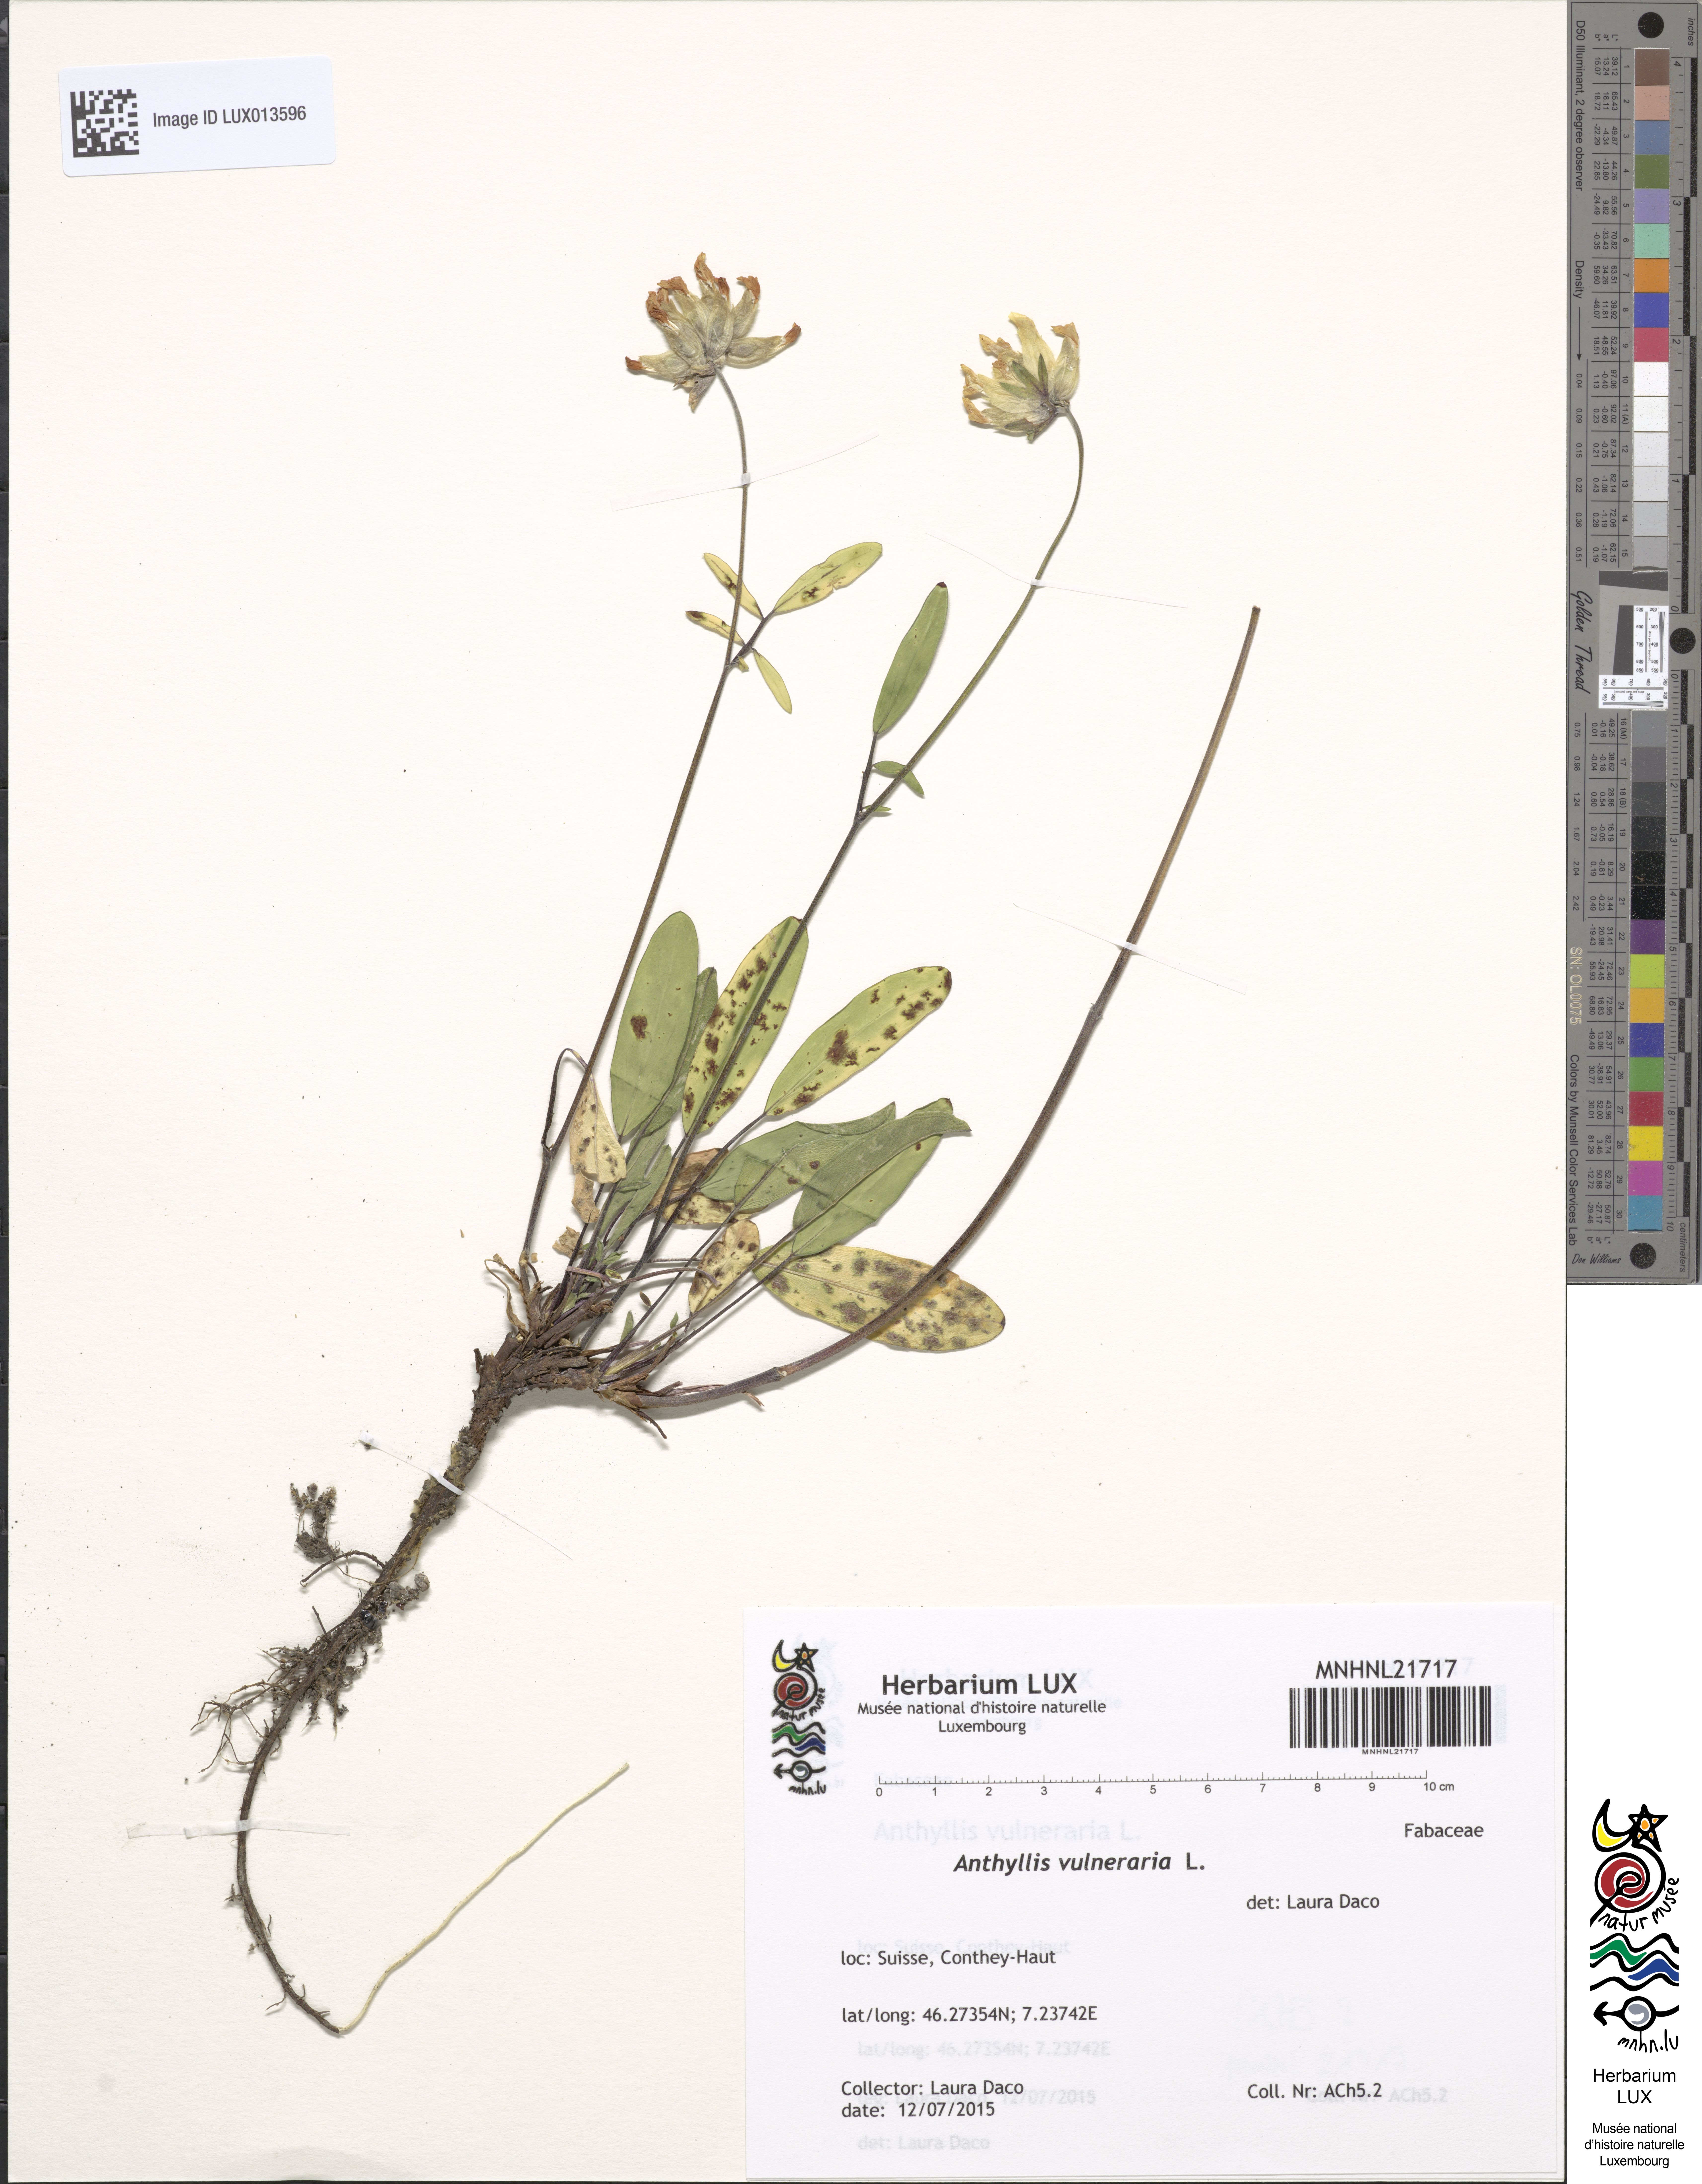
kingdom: Plantae
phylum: Tracheophyta
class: Magnoliopsida
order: Fabales
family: Fabaceae
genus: Anthyllis
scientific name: Anthyllis vulneraria
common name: Kidney vetch
